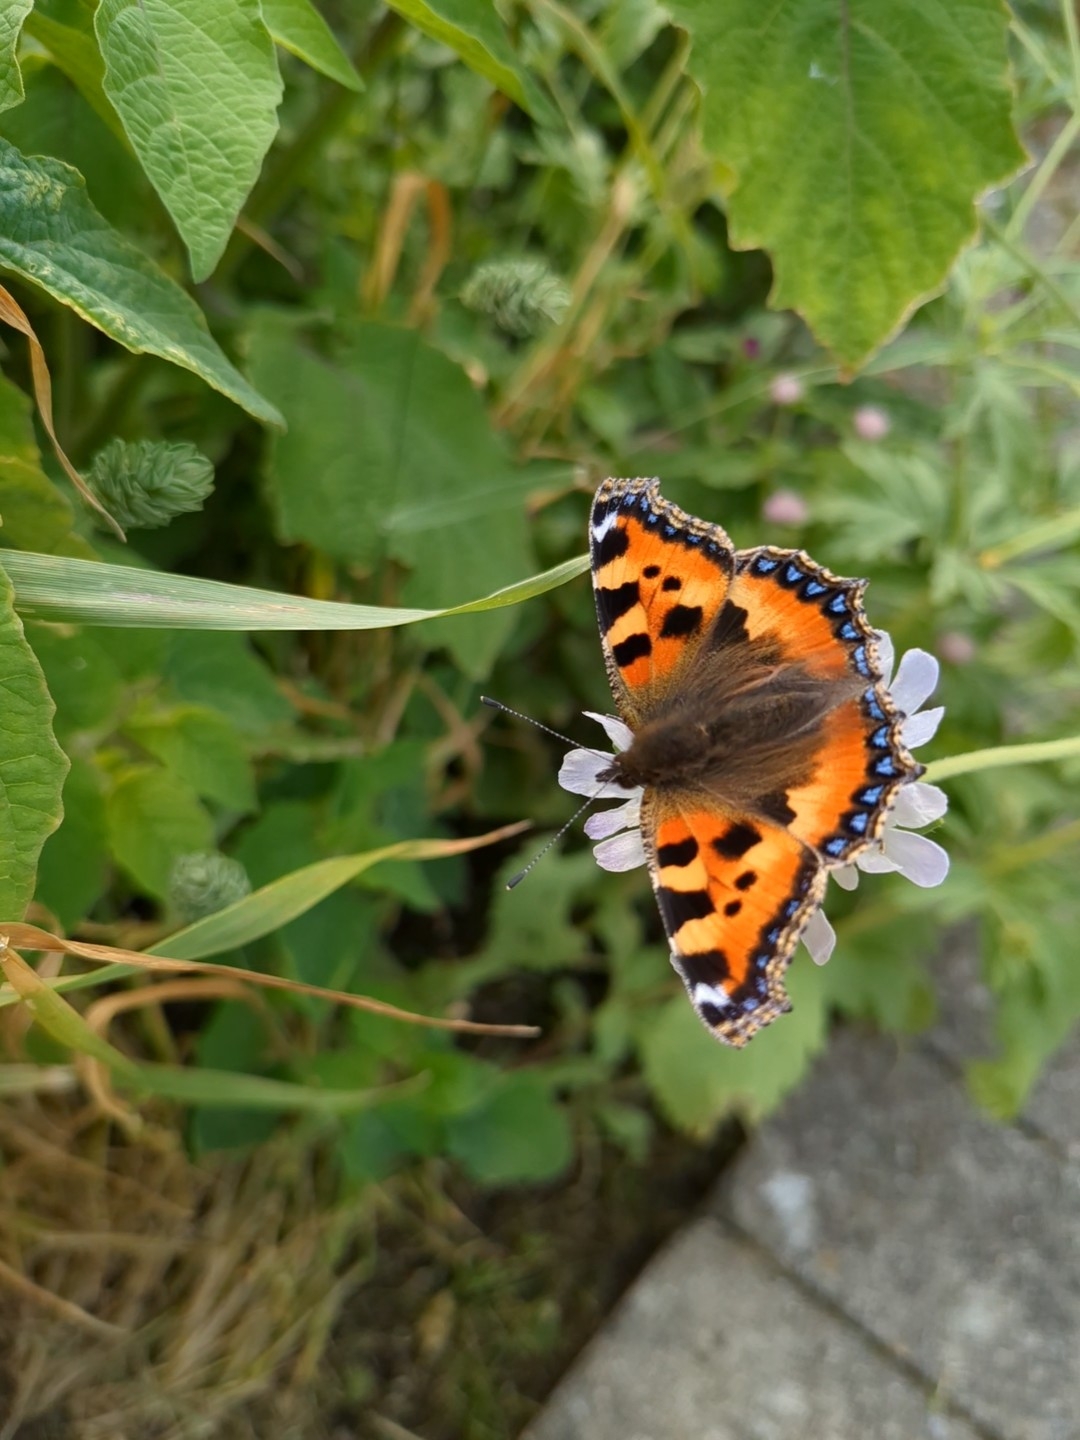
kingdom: Animalia
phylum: Arthropoda
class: Insecta
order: Lepidoptera
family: Nymphalidae
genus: Aglais
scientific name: Aglais urticae
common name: Nældens takvinge
